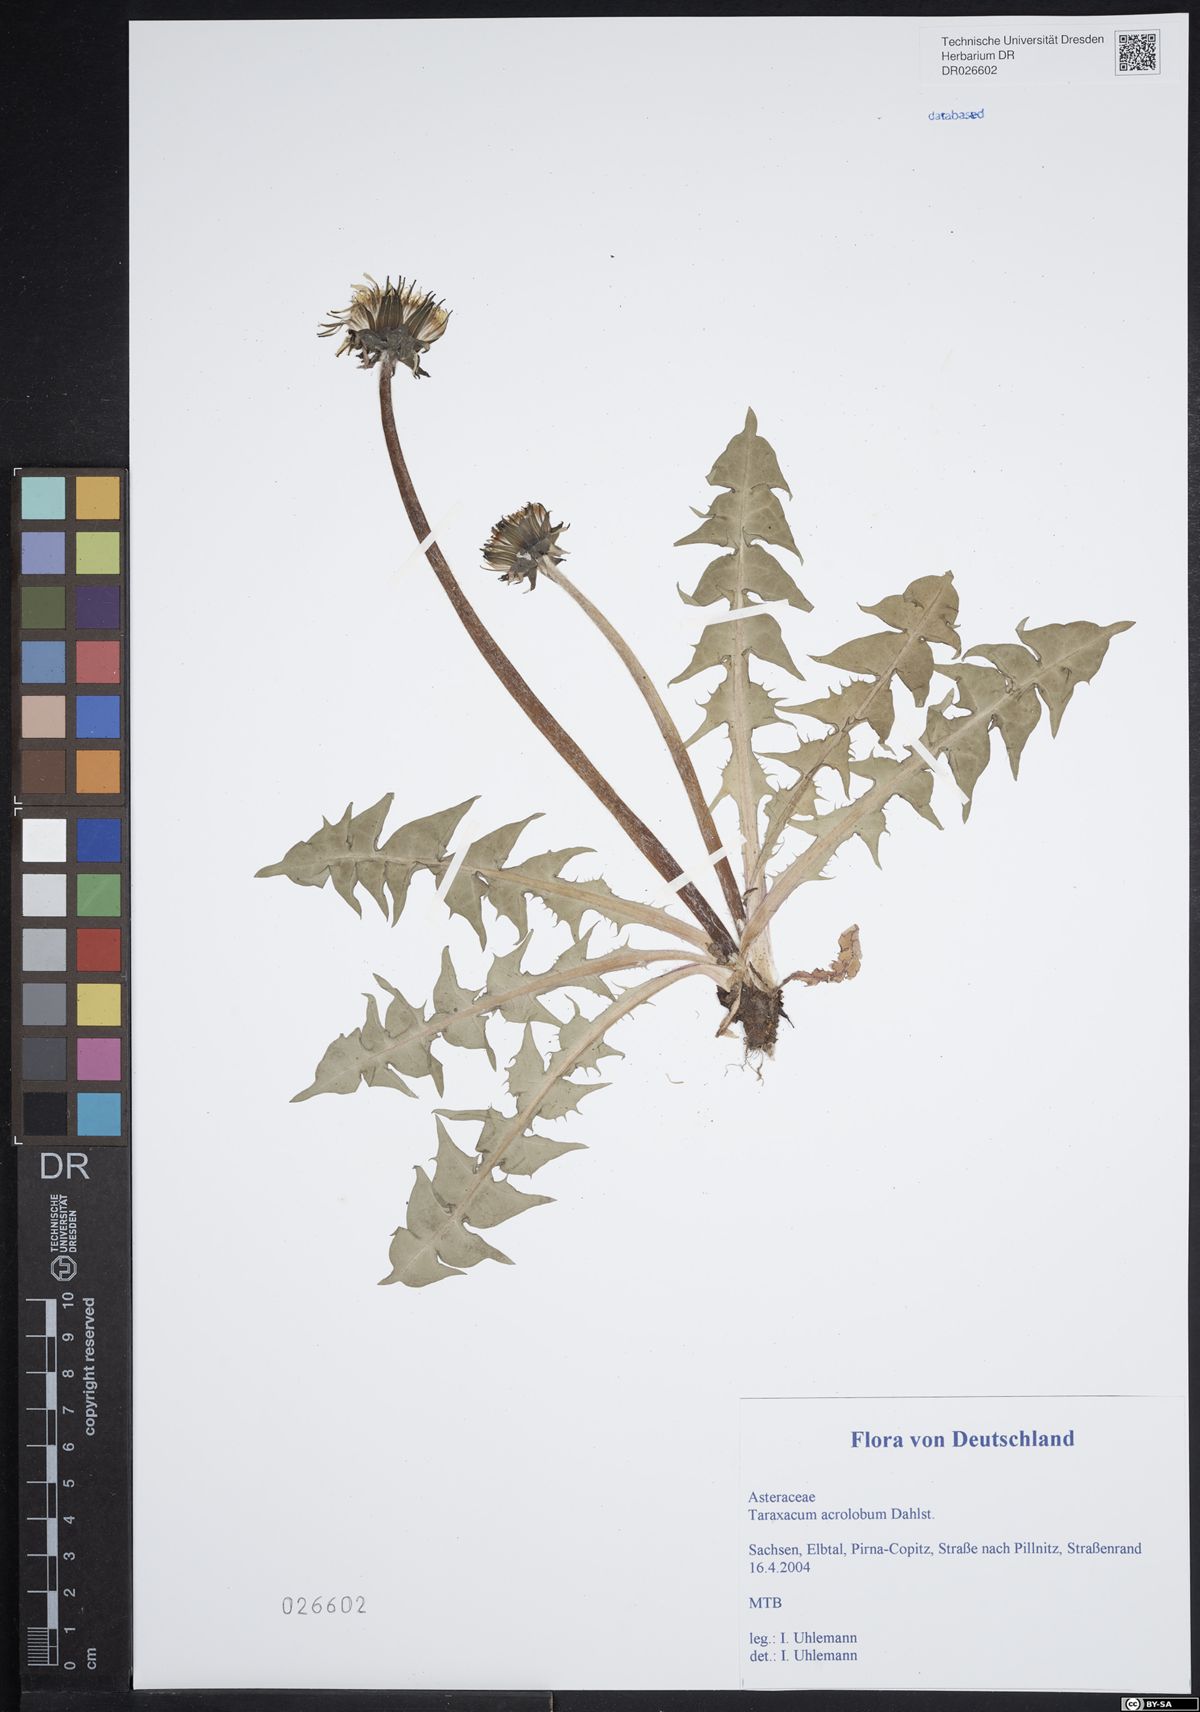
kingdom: Plantae
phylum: Tracheophyta
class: Magnoliopsida
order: Asterales
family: Asteraceae
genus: Taraxacum
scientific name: Taraxacum acrolobum
